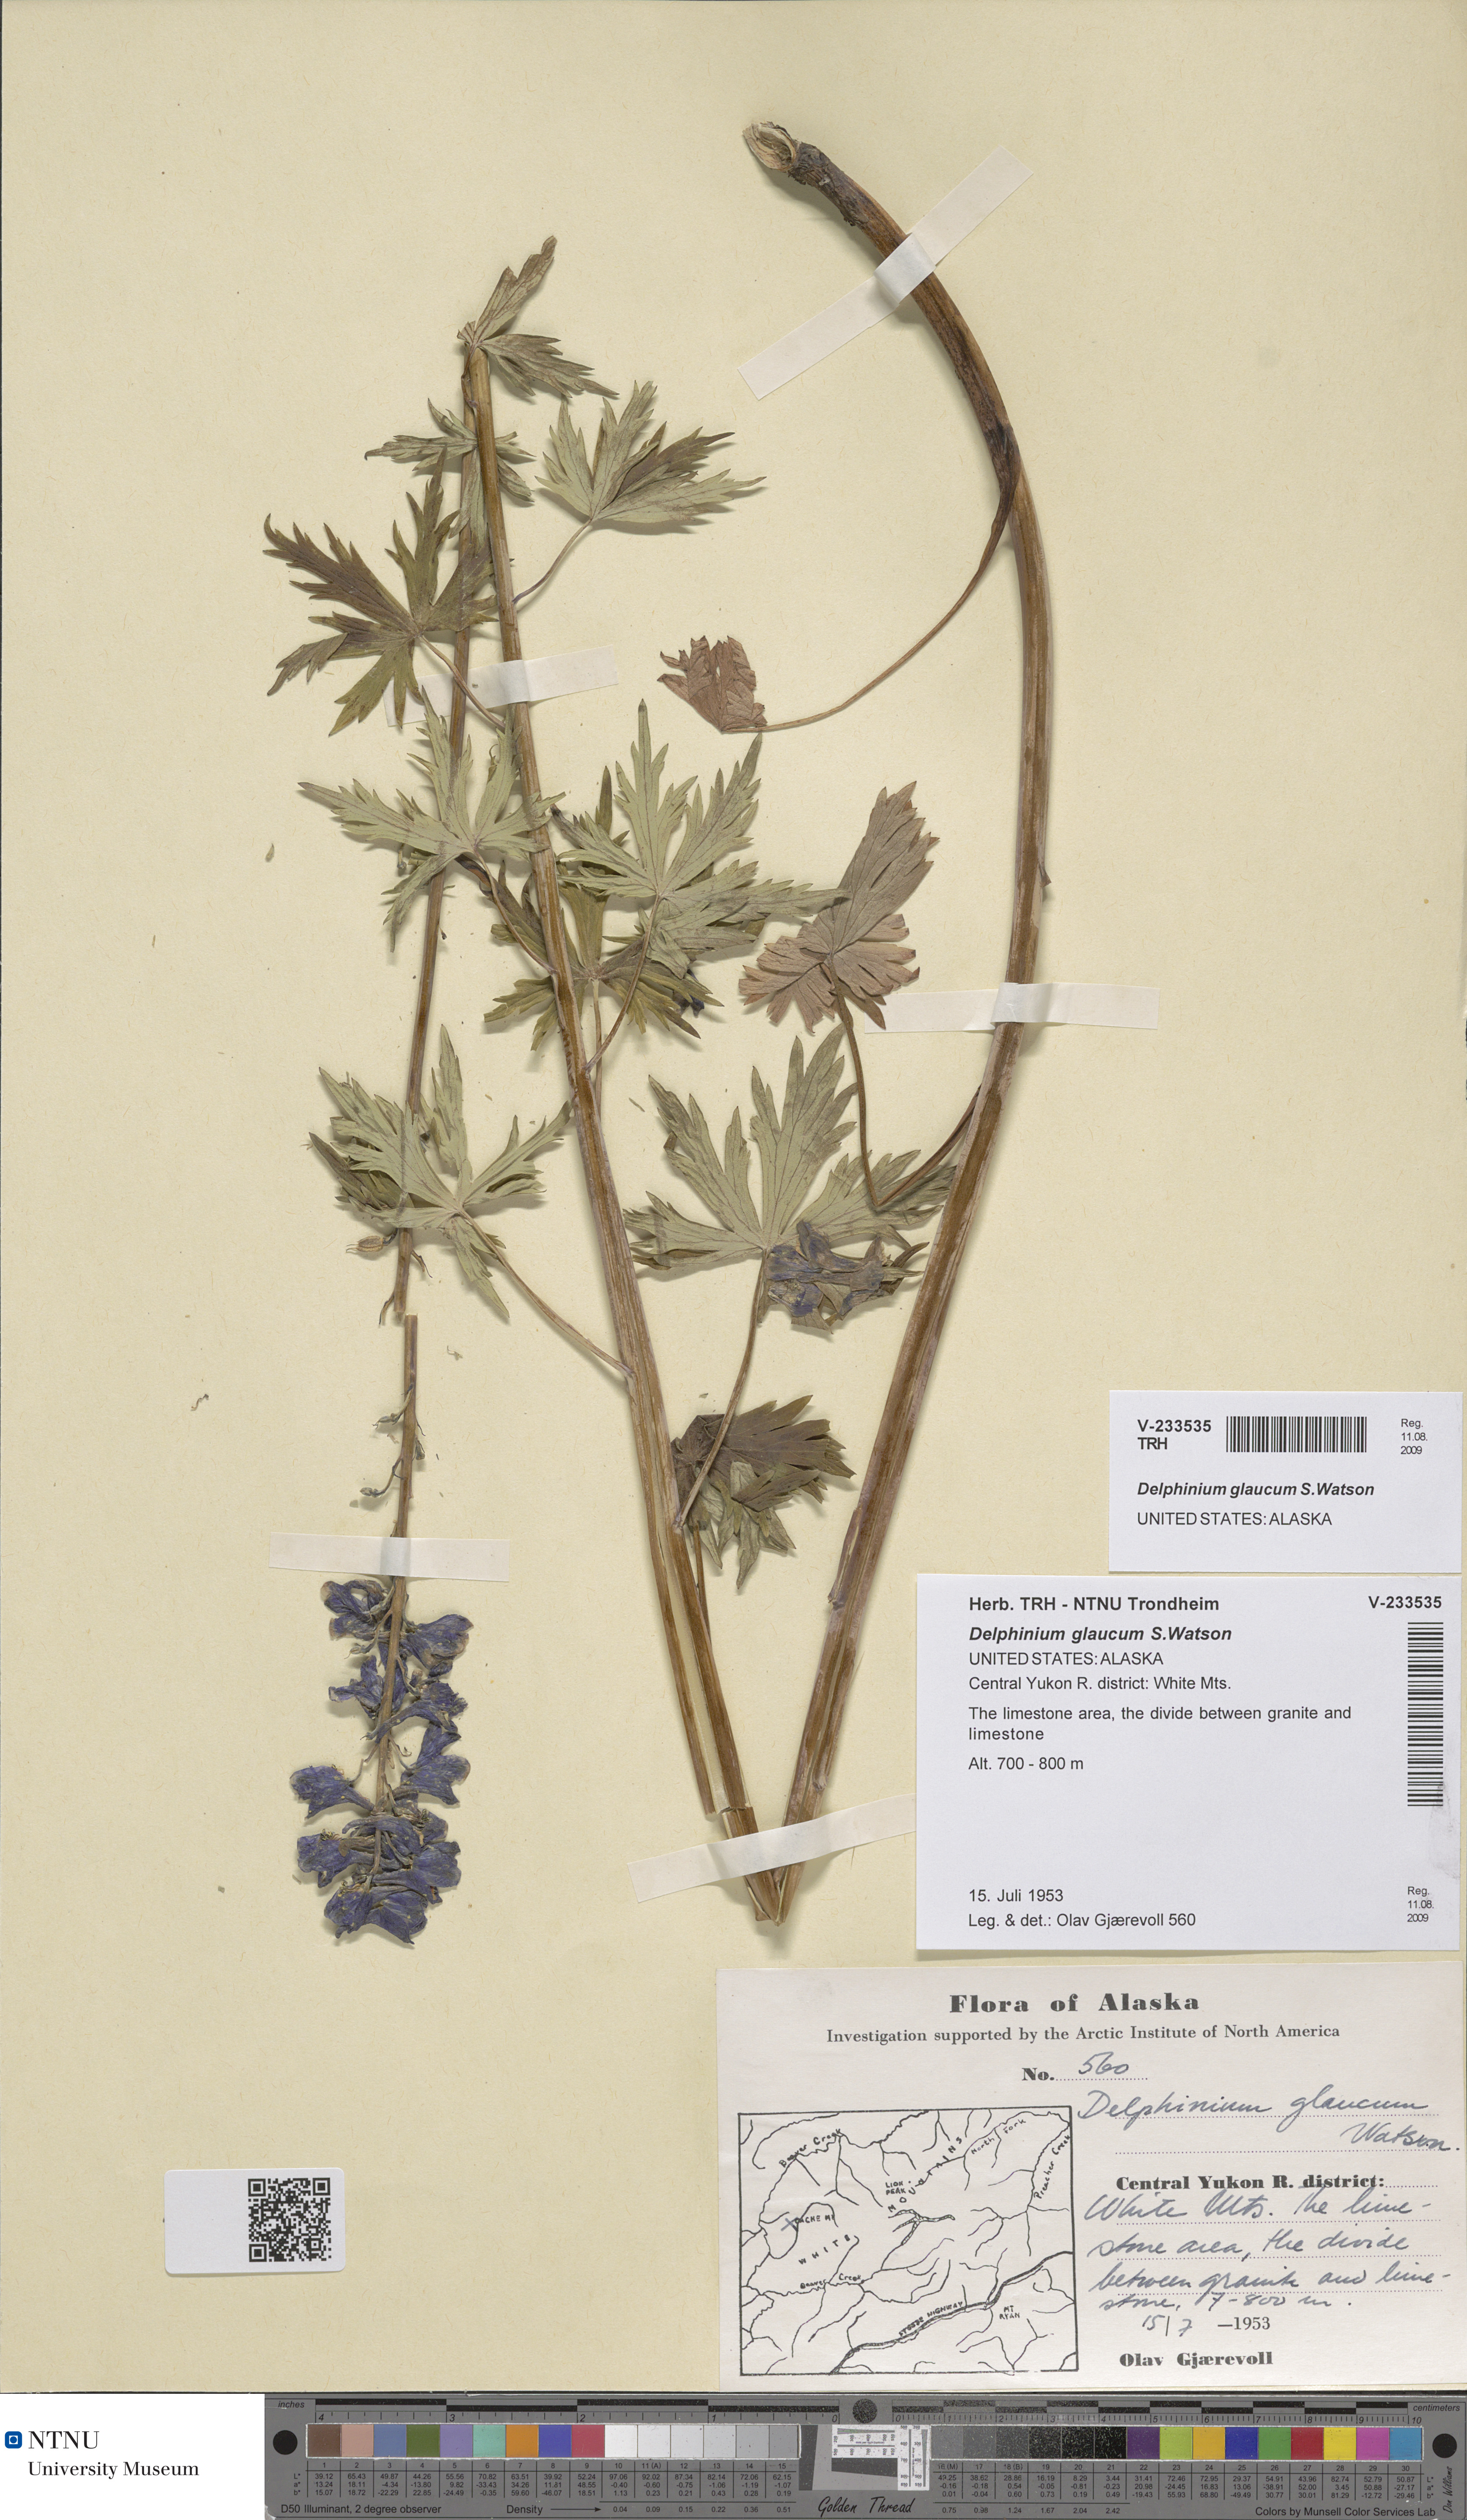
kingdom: Plantae
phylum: Tracheophyta
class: Magnoliopsida
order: Ranunculales
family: Ranunculaceae
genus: Delphinium
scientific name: Delphinium glaucum
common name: Brown's larkspur
